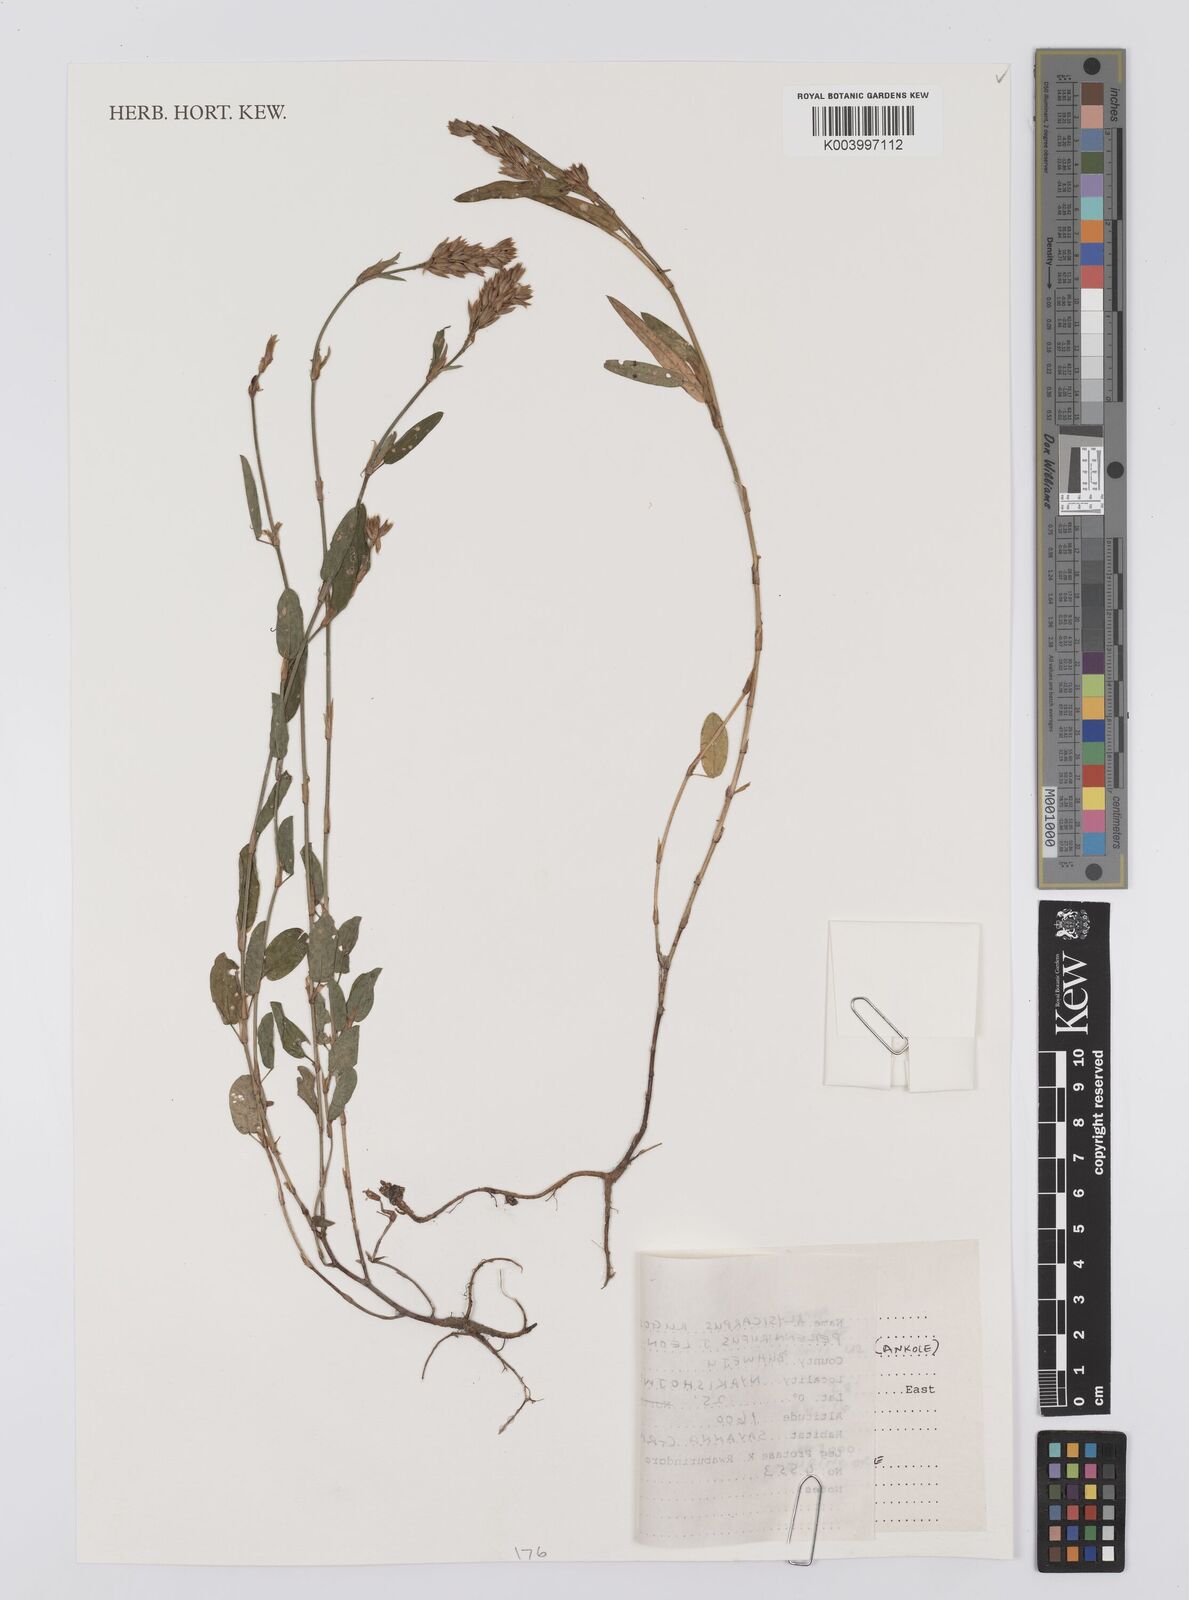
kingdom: Plantae
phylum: Tracheophyta
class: Magnoliopsida
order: Fabales
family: Fabaceae
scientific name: Fabaceae
